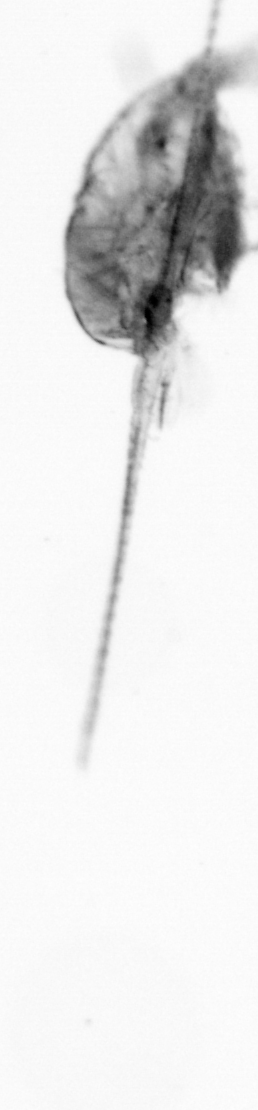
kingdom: Animalia
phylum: Arthropoda
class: Copepoda
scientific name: Copepoda
